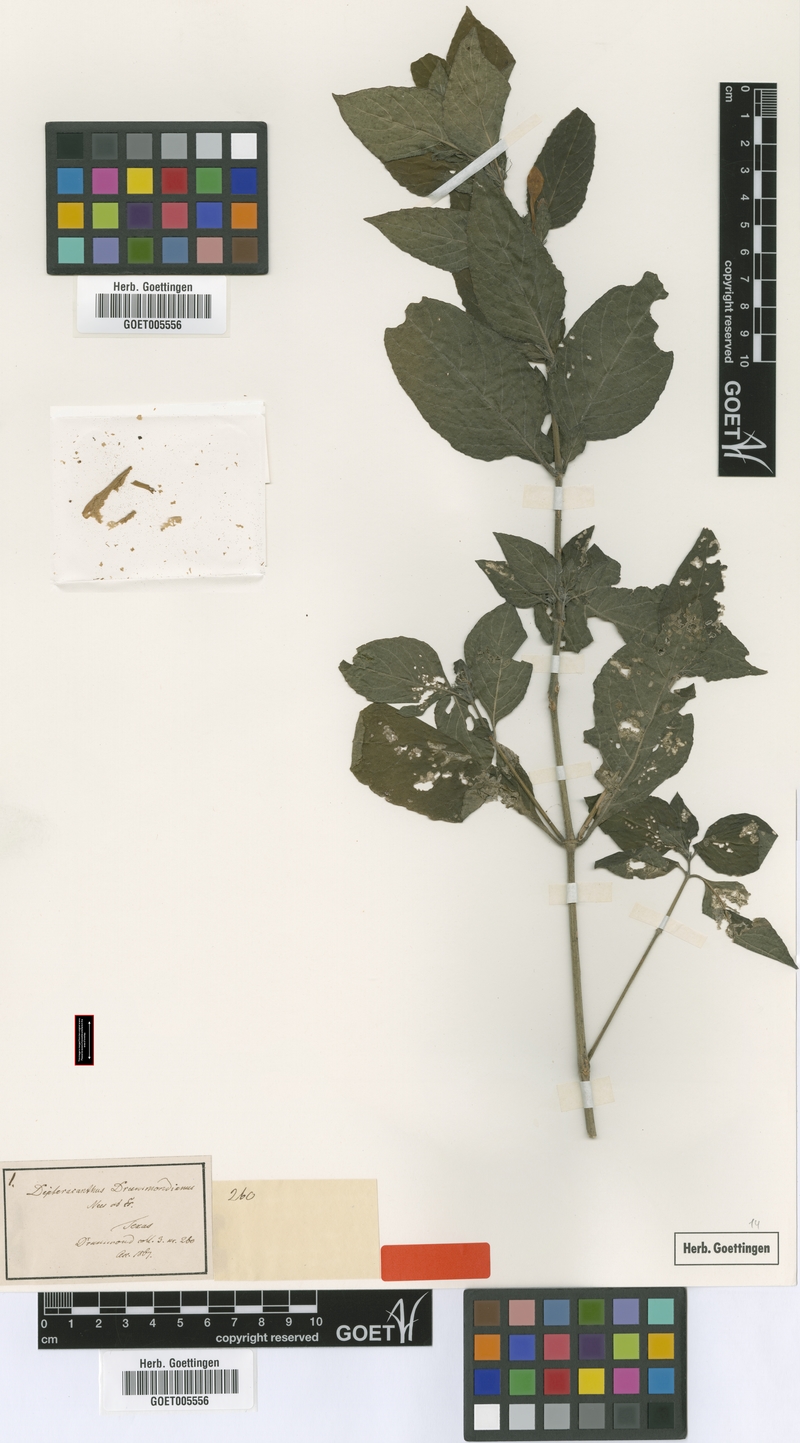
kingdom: Plantae
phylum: Tracheophyta
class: Magnoliopsida
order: Lamiales
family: Acanthaceae
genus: Ruellia
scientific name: Ruellia drummondiana
